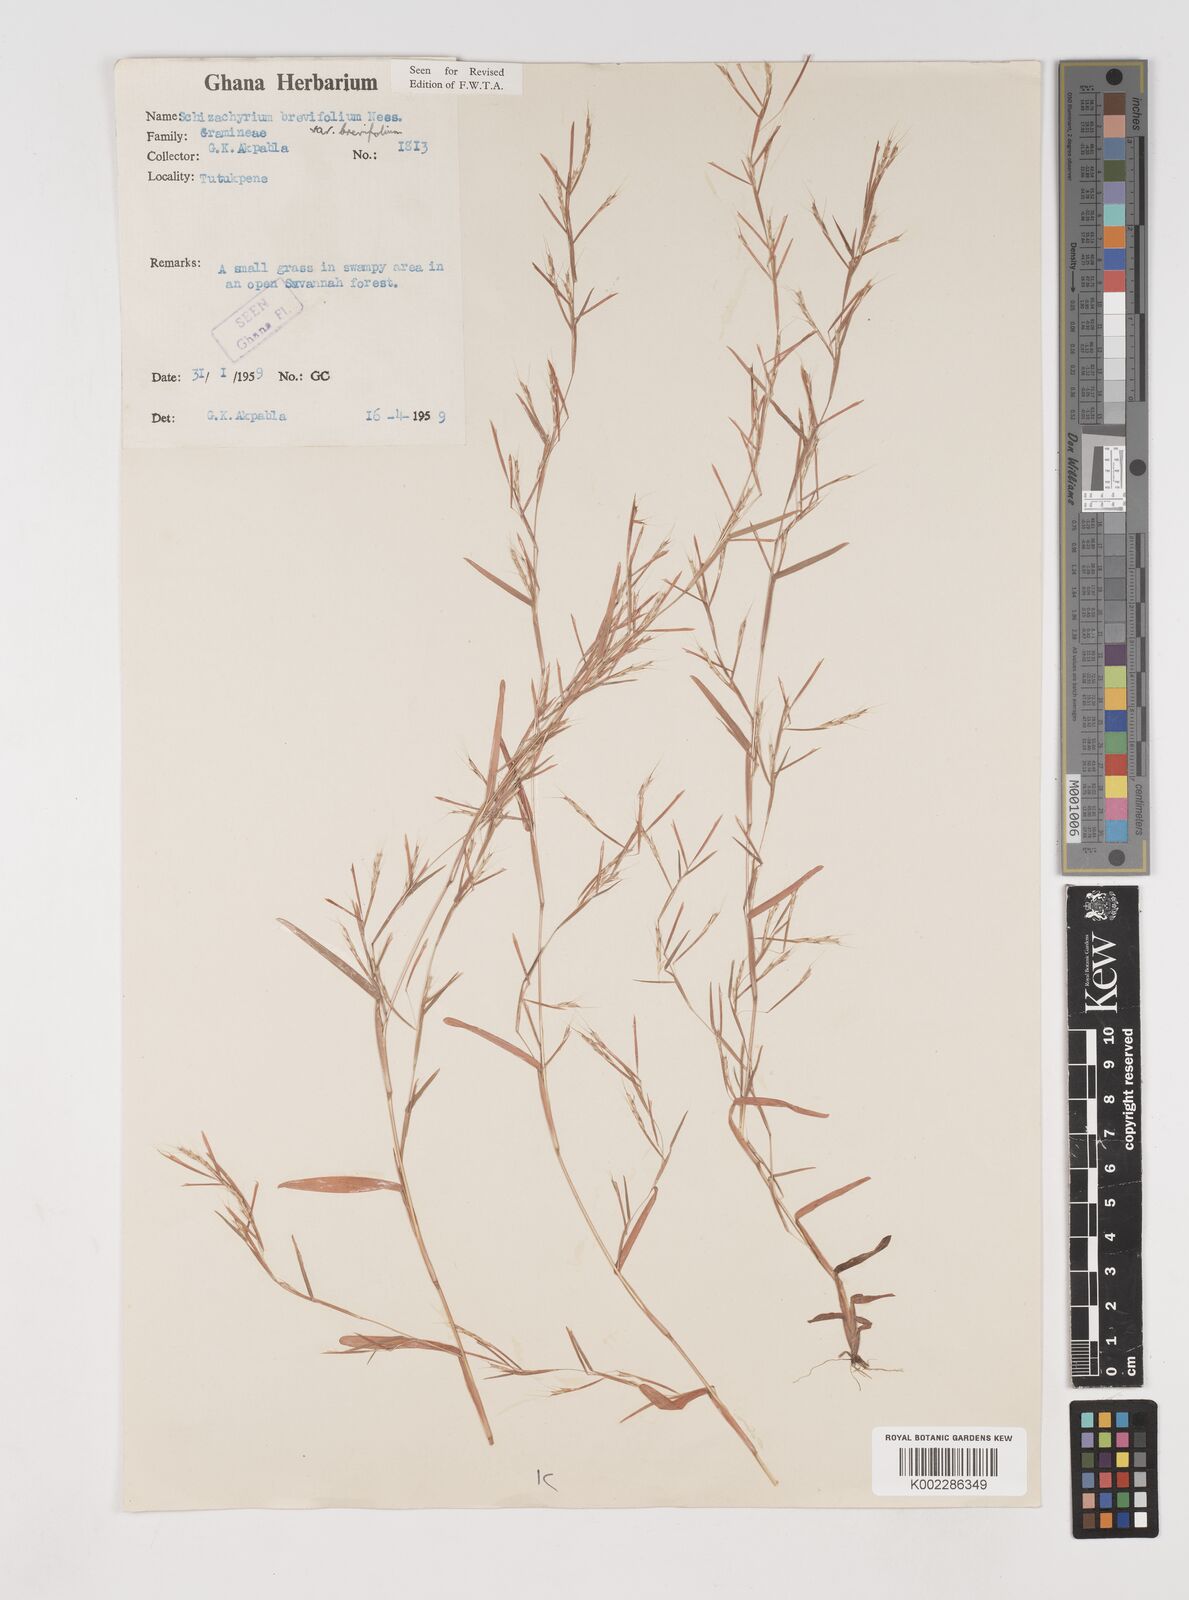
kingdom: Plantae
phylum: Tracheophyta
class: Liliopsida
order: Poales
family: Poaceae
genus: Schizachyrium
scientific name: Schizachyrium brevifolium
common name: Serillo dulce
